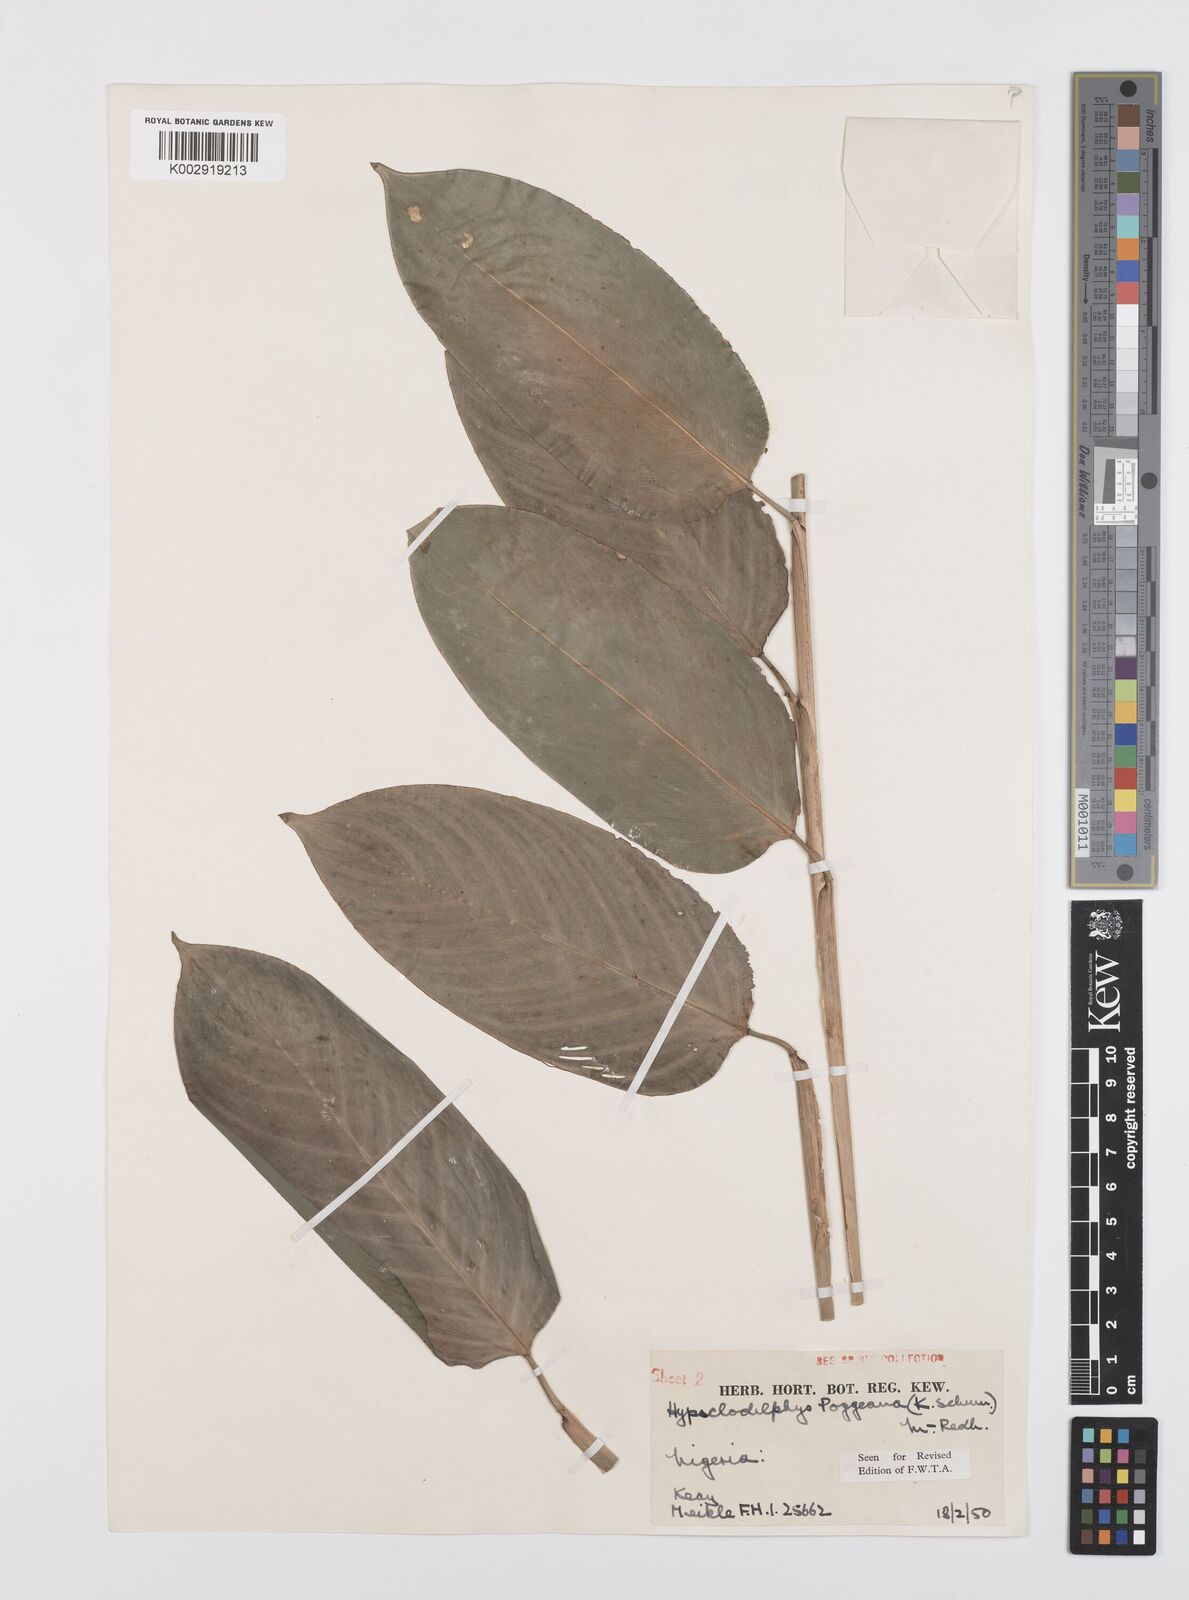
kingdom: Plantae
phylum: Tracheophyta
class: Liliopsida
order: Zingiberales
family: Marantaceae
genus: Hypselodelphys
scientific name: Hypselodelphys poggeana
